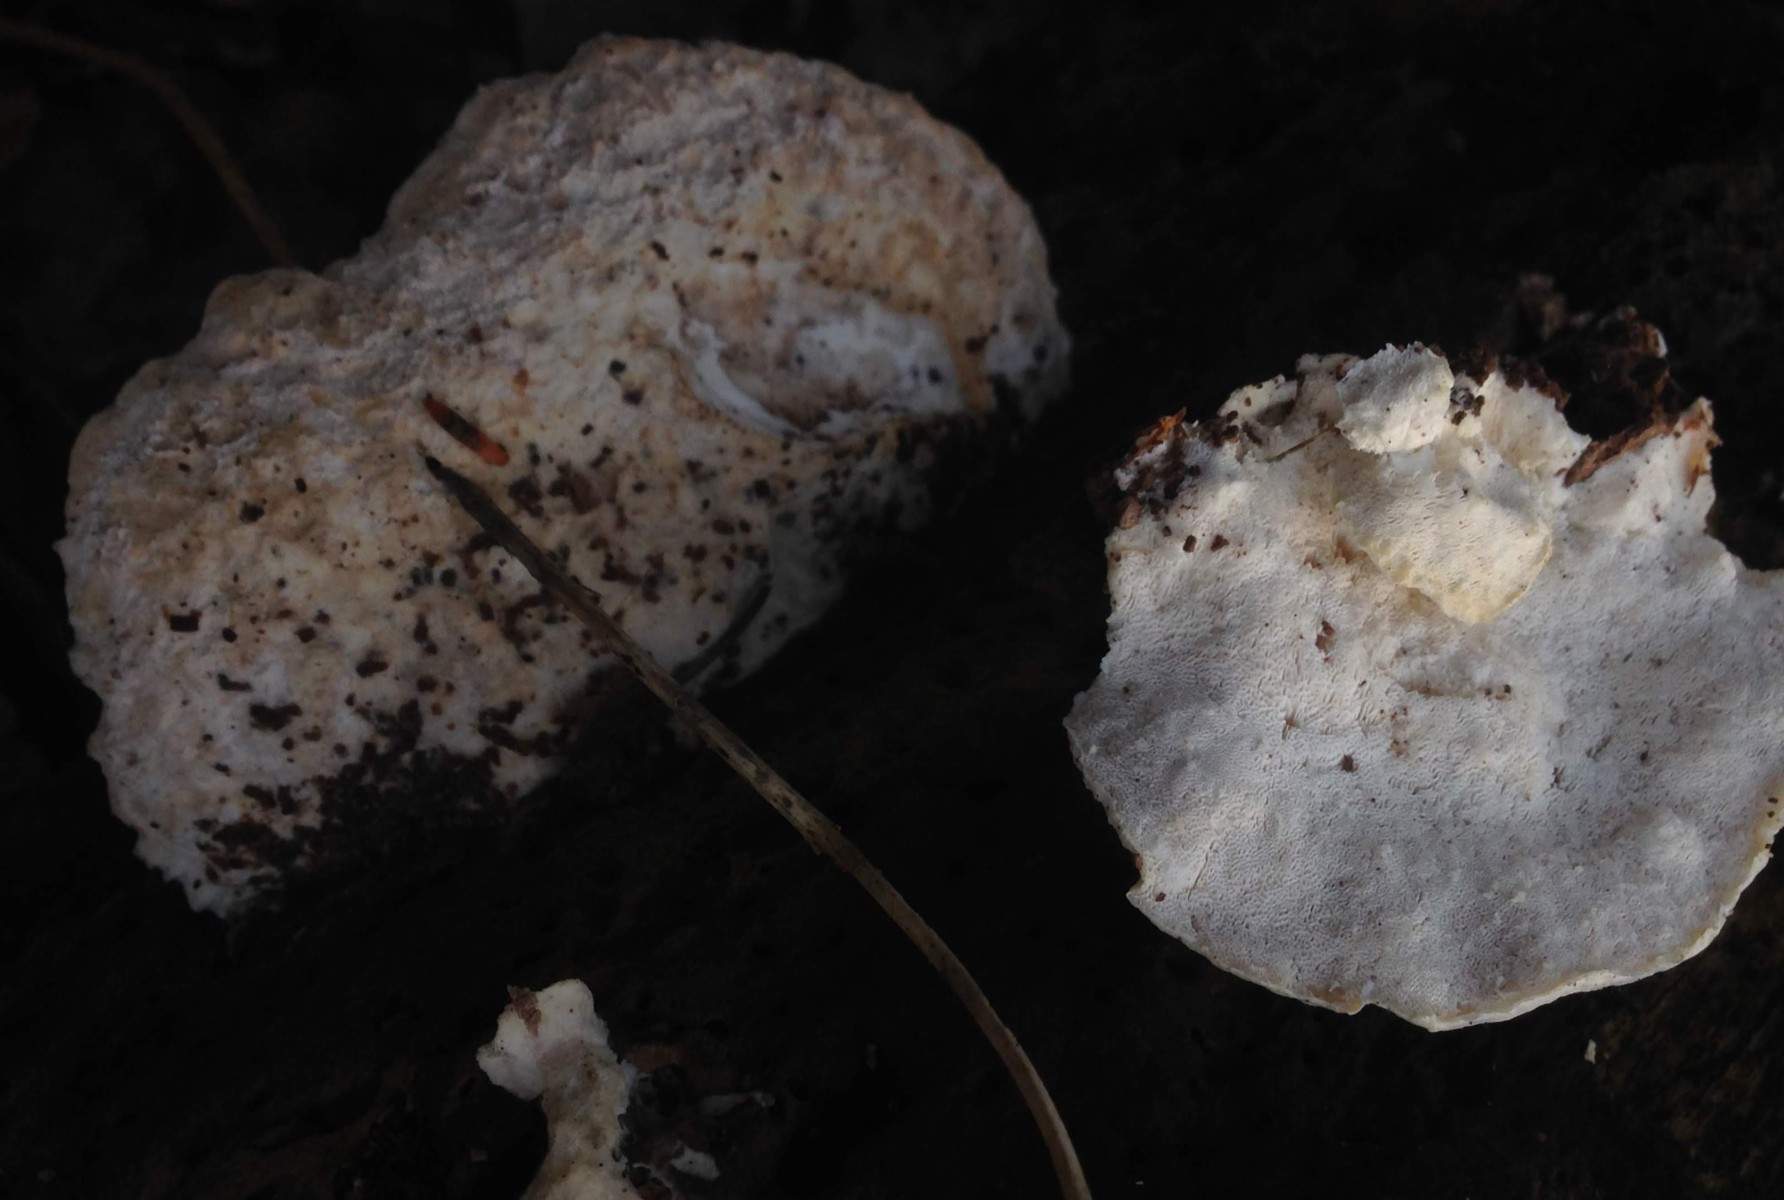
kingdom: Fungi
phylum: Basidiomycota
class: Agaricomycetes
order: Polyporales
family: Incrustoporiaceae
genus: Tyromyces
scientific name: Tyromyces lacteus
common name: mælkehvid kødporesvamp
